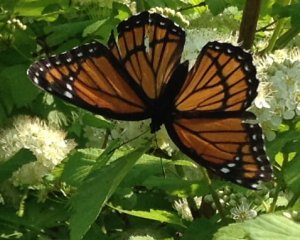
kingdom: Animalia
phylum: Arthropoda
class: Insecta
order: Lepidoptera
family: Nymphalidae
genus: Limenitis
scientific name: Limenitis archippus
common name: Viceroy
